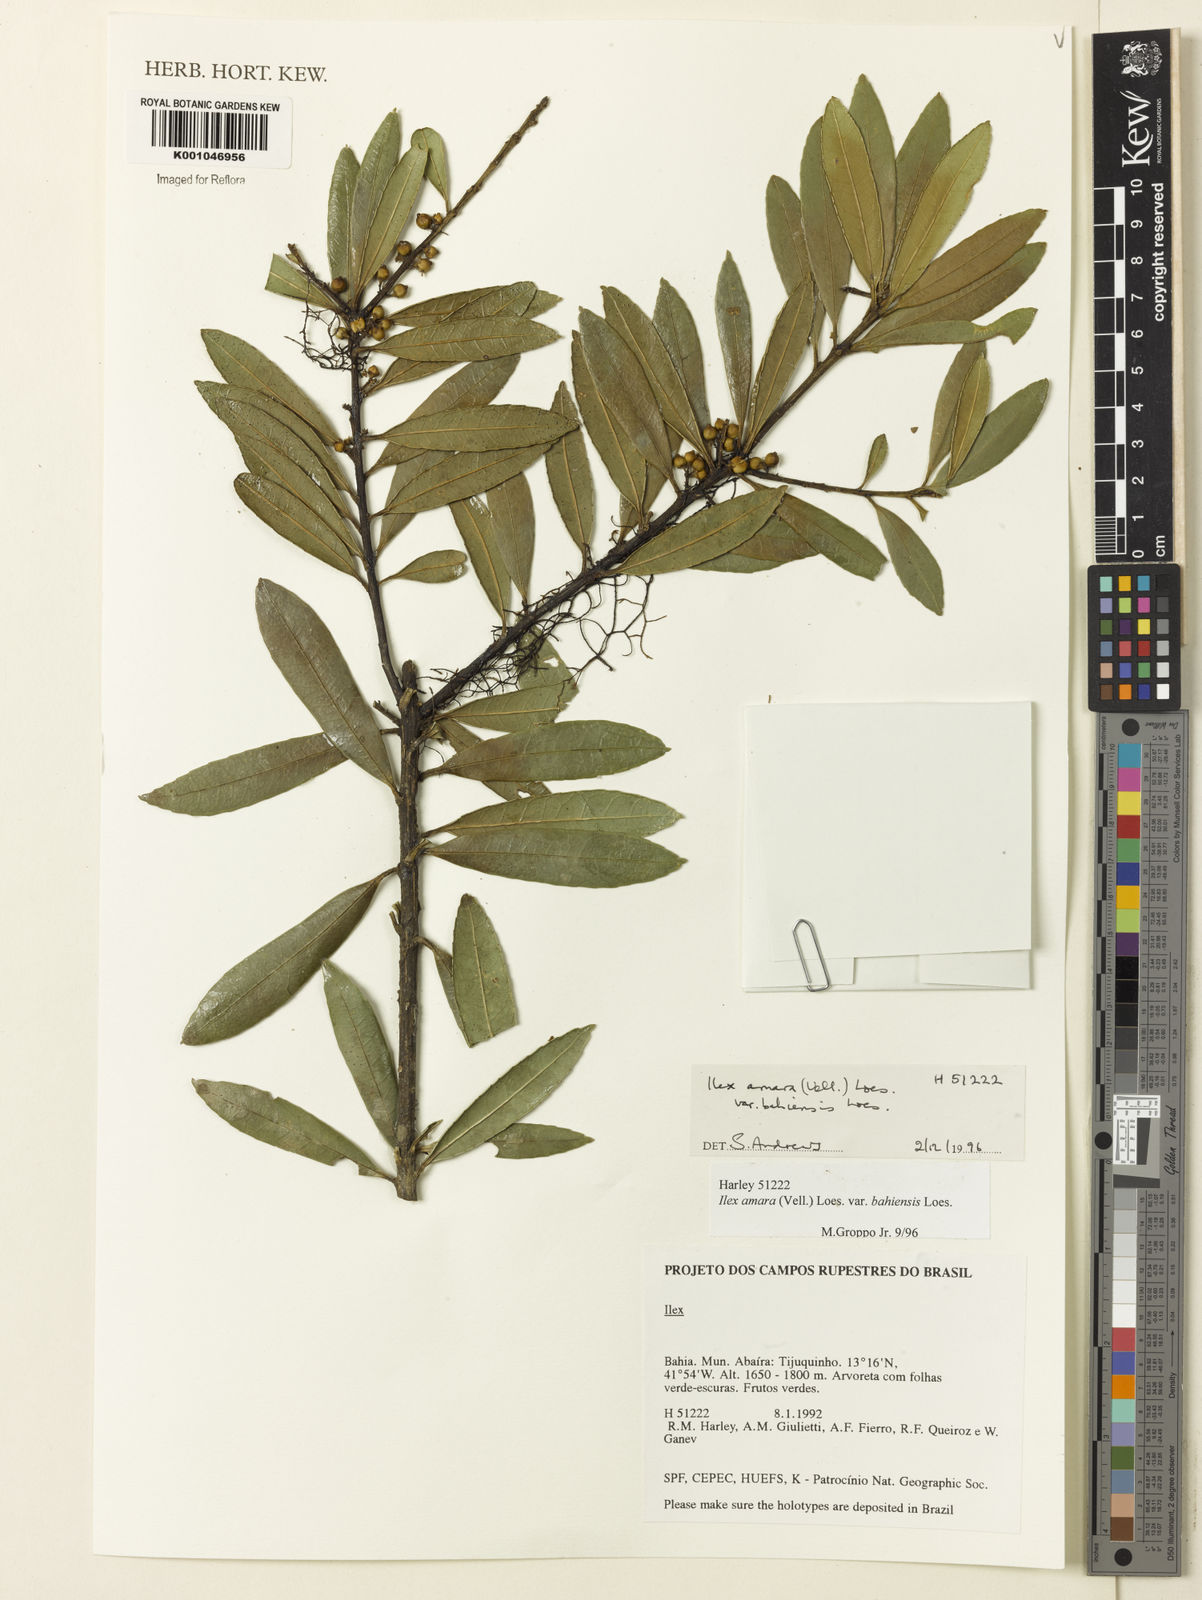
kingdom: Plantae
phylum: Tracheophyta
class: Magnoliopsida
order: Aquifoliales
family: Aquifoliaceae
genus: Ilex
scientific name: Ilex dumosa
